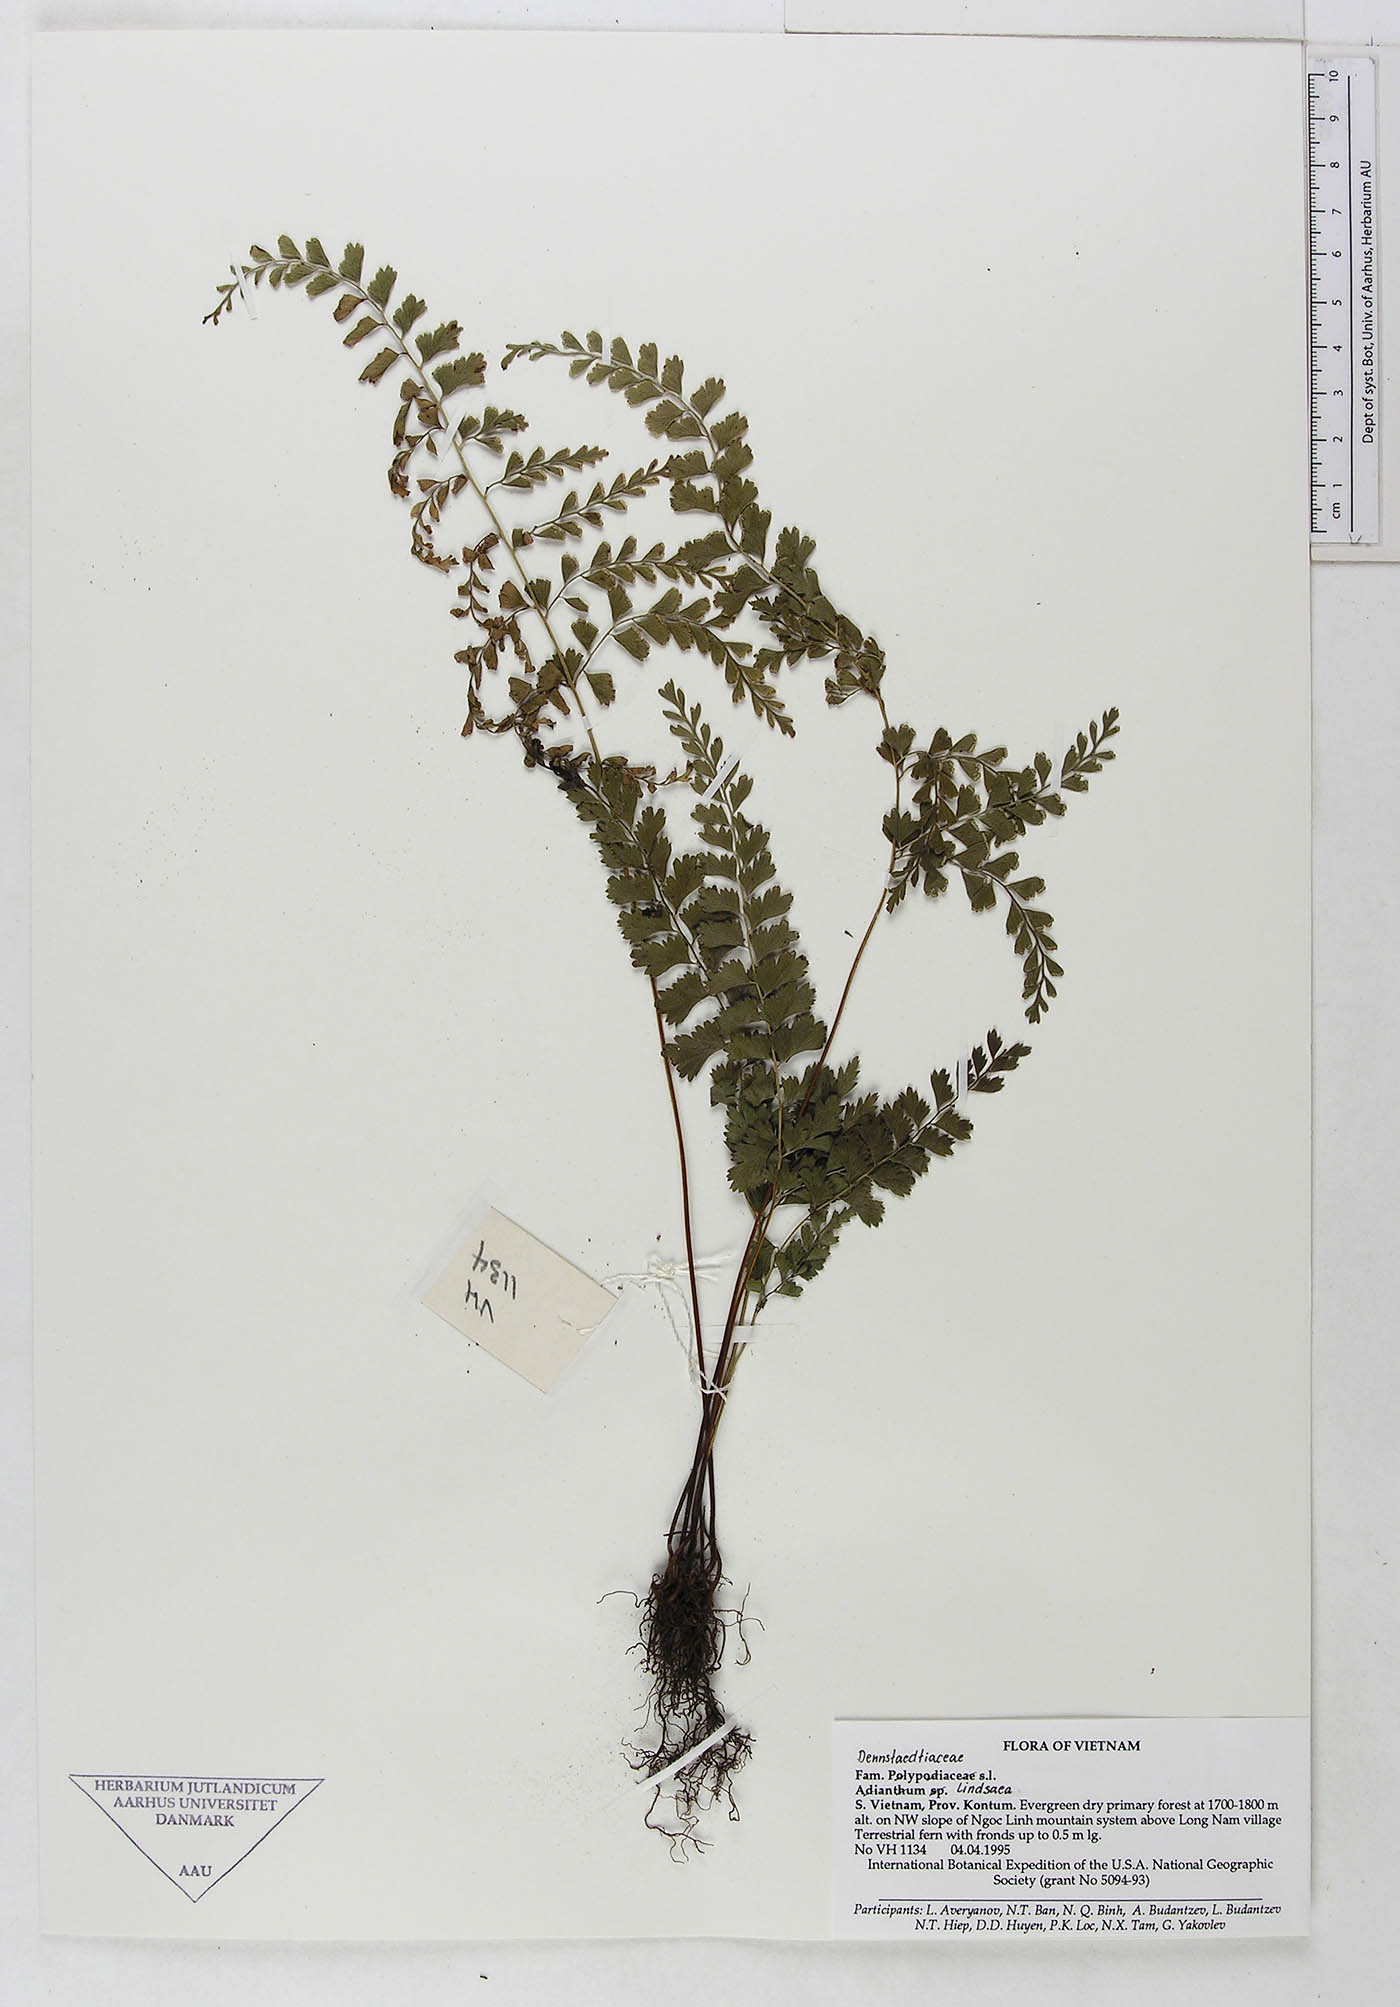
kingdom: Plantae
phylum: Tracheophyta
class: Polypodiopsida
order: Polypodiales
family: Dennstaedtiaceae
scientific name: Dennstaedtiaceae
